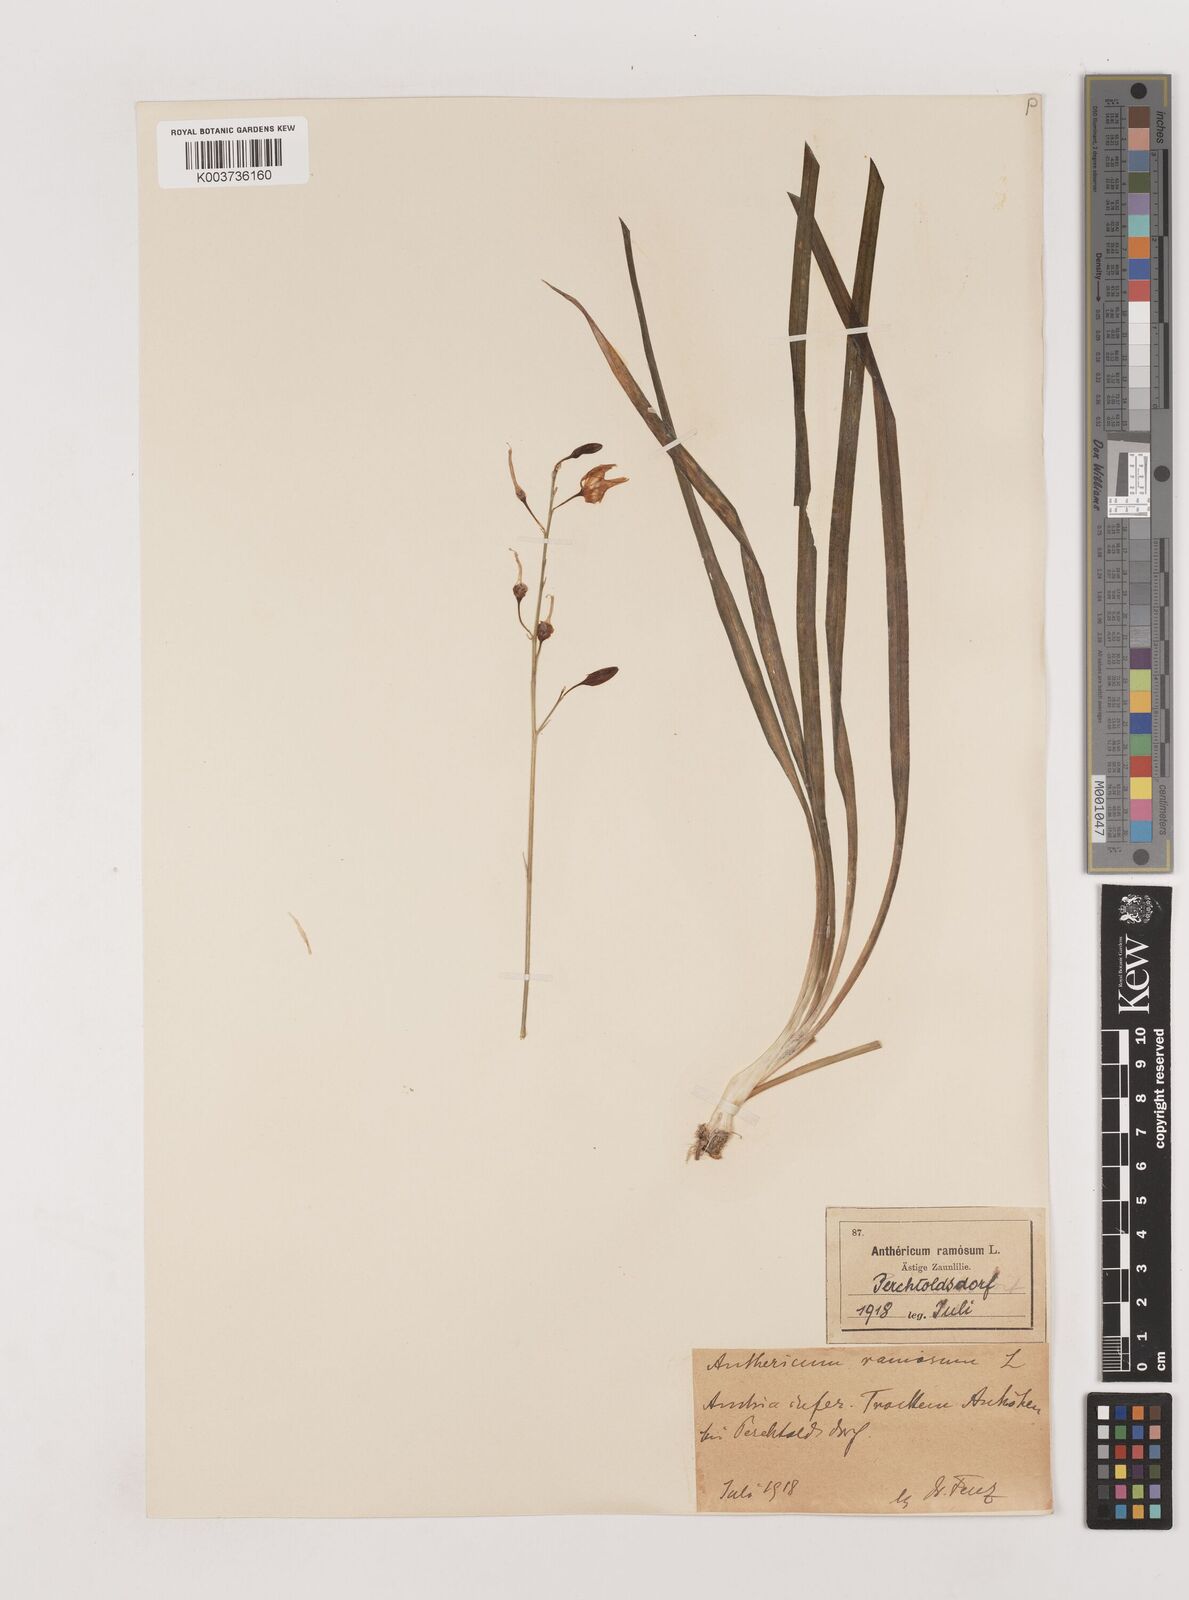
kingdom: Plantae
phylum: Tracheophyta
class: Liliopsida
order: Asparagales
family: Asparagaceae
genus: Anthericum
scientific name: Anthericum ramosum
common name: Branched st. bernard's-lily
